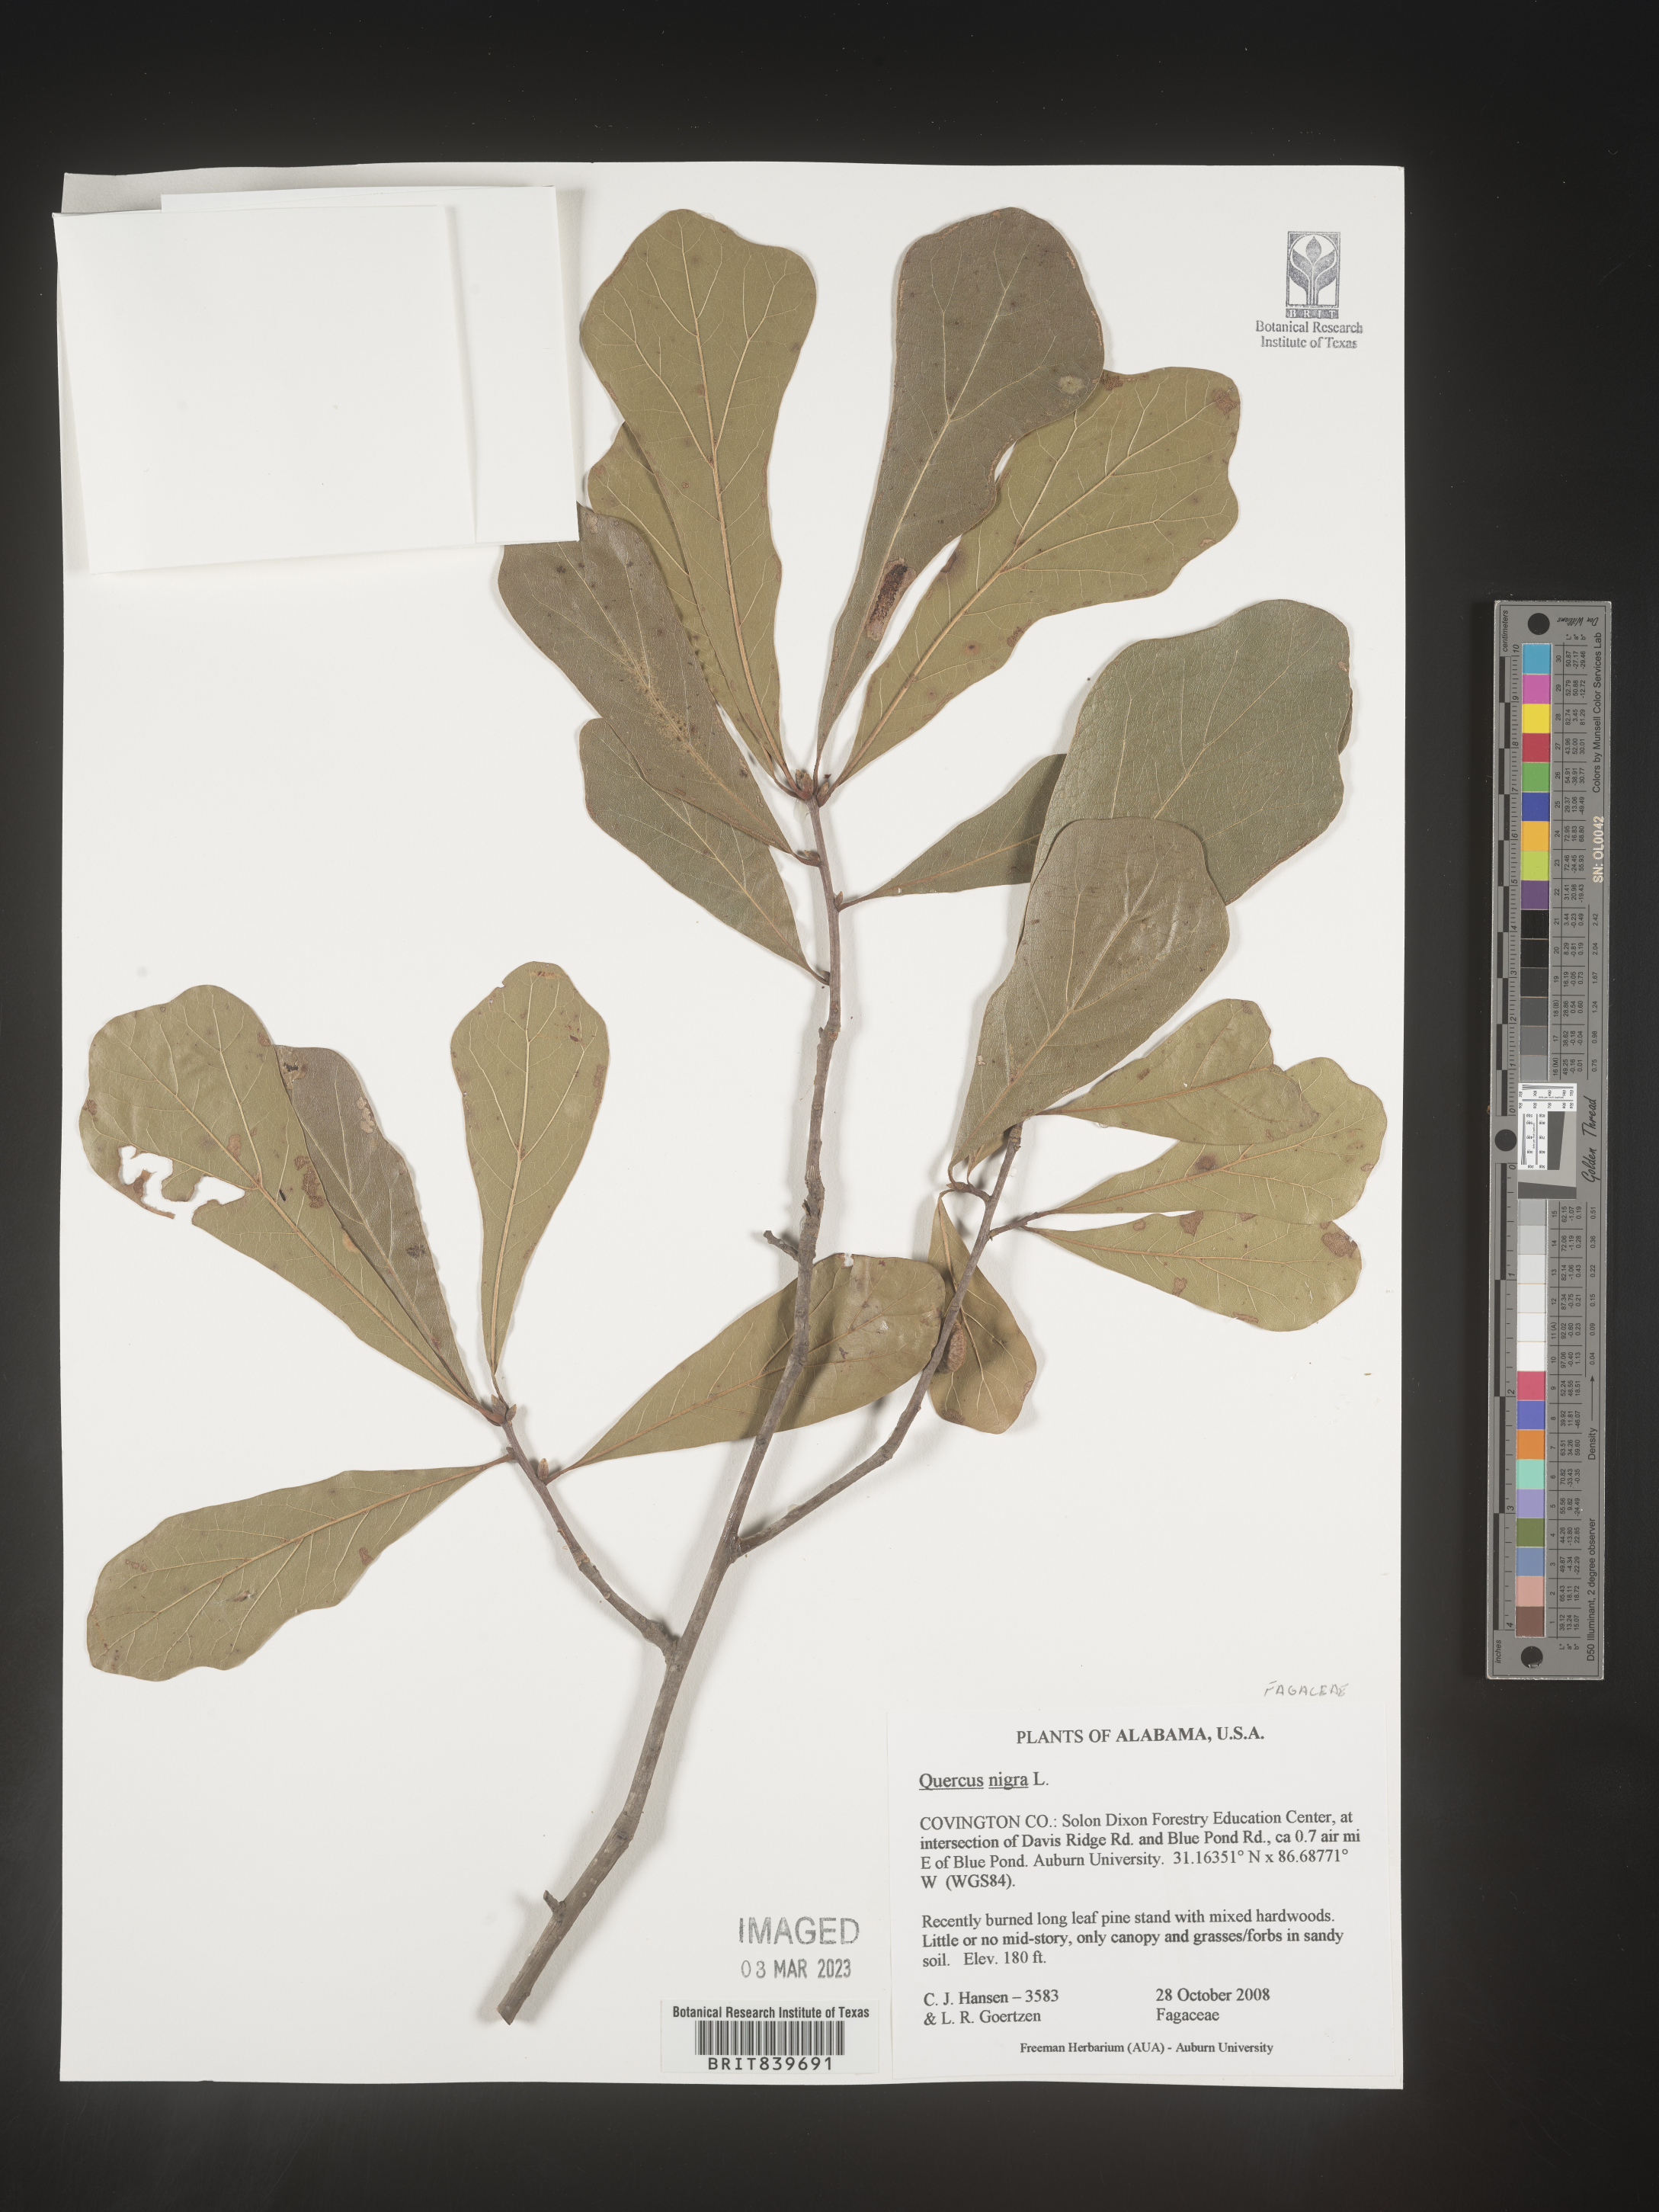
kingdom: Plantae
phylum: Tracheophyta
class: Magnoliopsida
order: Fagales
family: Fagaceae
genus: Quercus
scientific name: Quercus nigra
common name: Water oak
